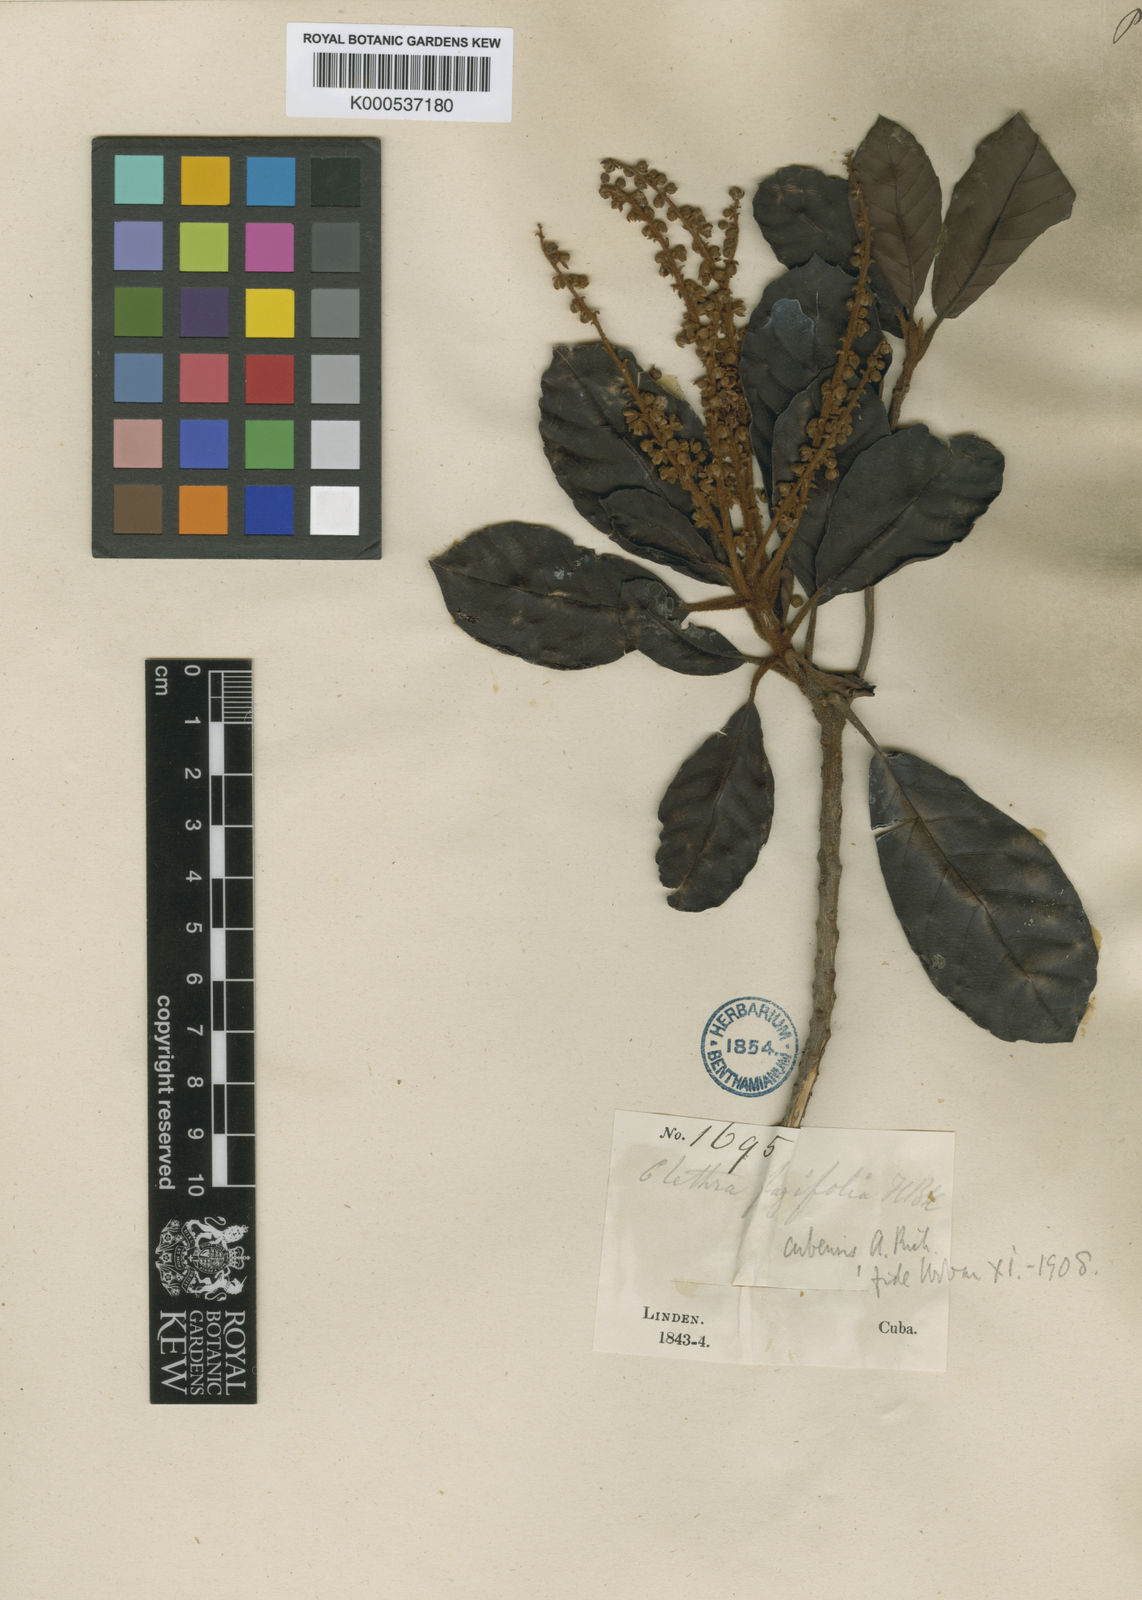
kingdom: Plantae
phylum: Tracheophyta
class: Magnoliopsida
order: Ericales
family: Clethraceae
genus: Clethra
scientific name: Clethra cubensis
